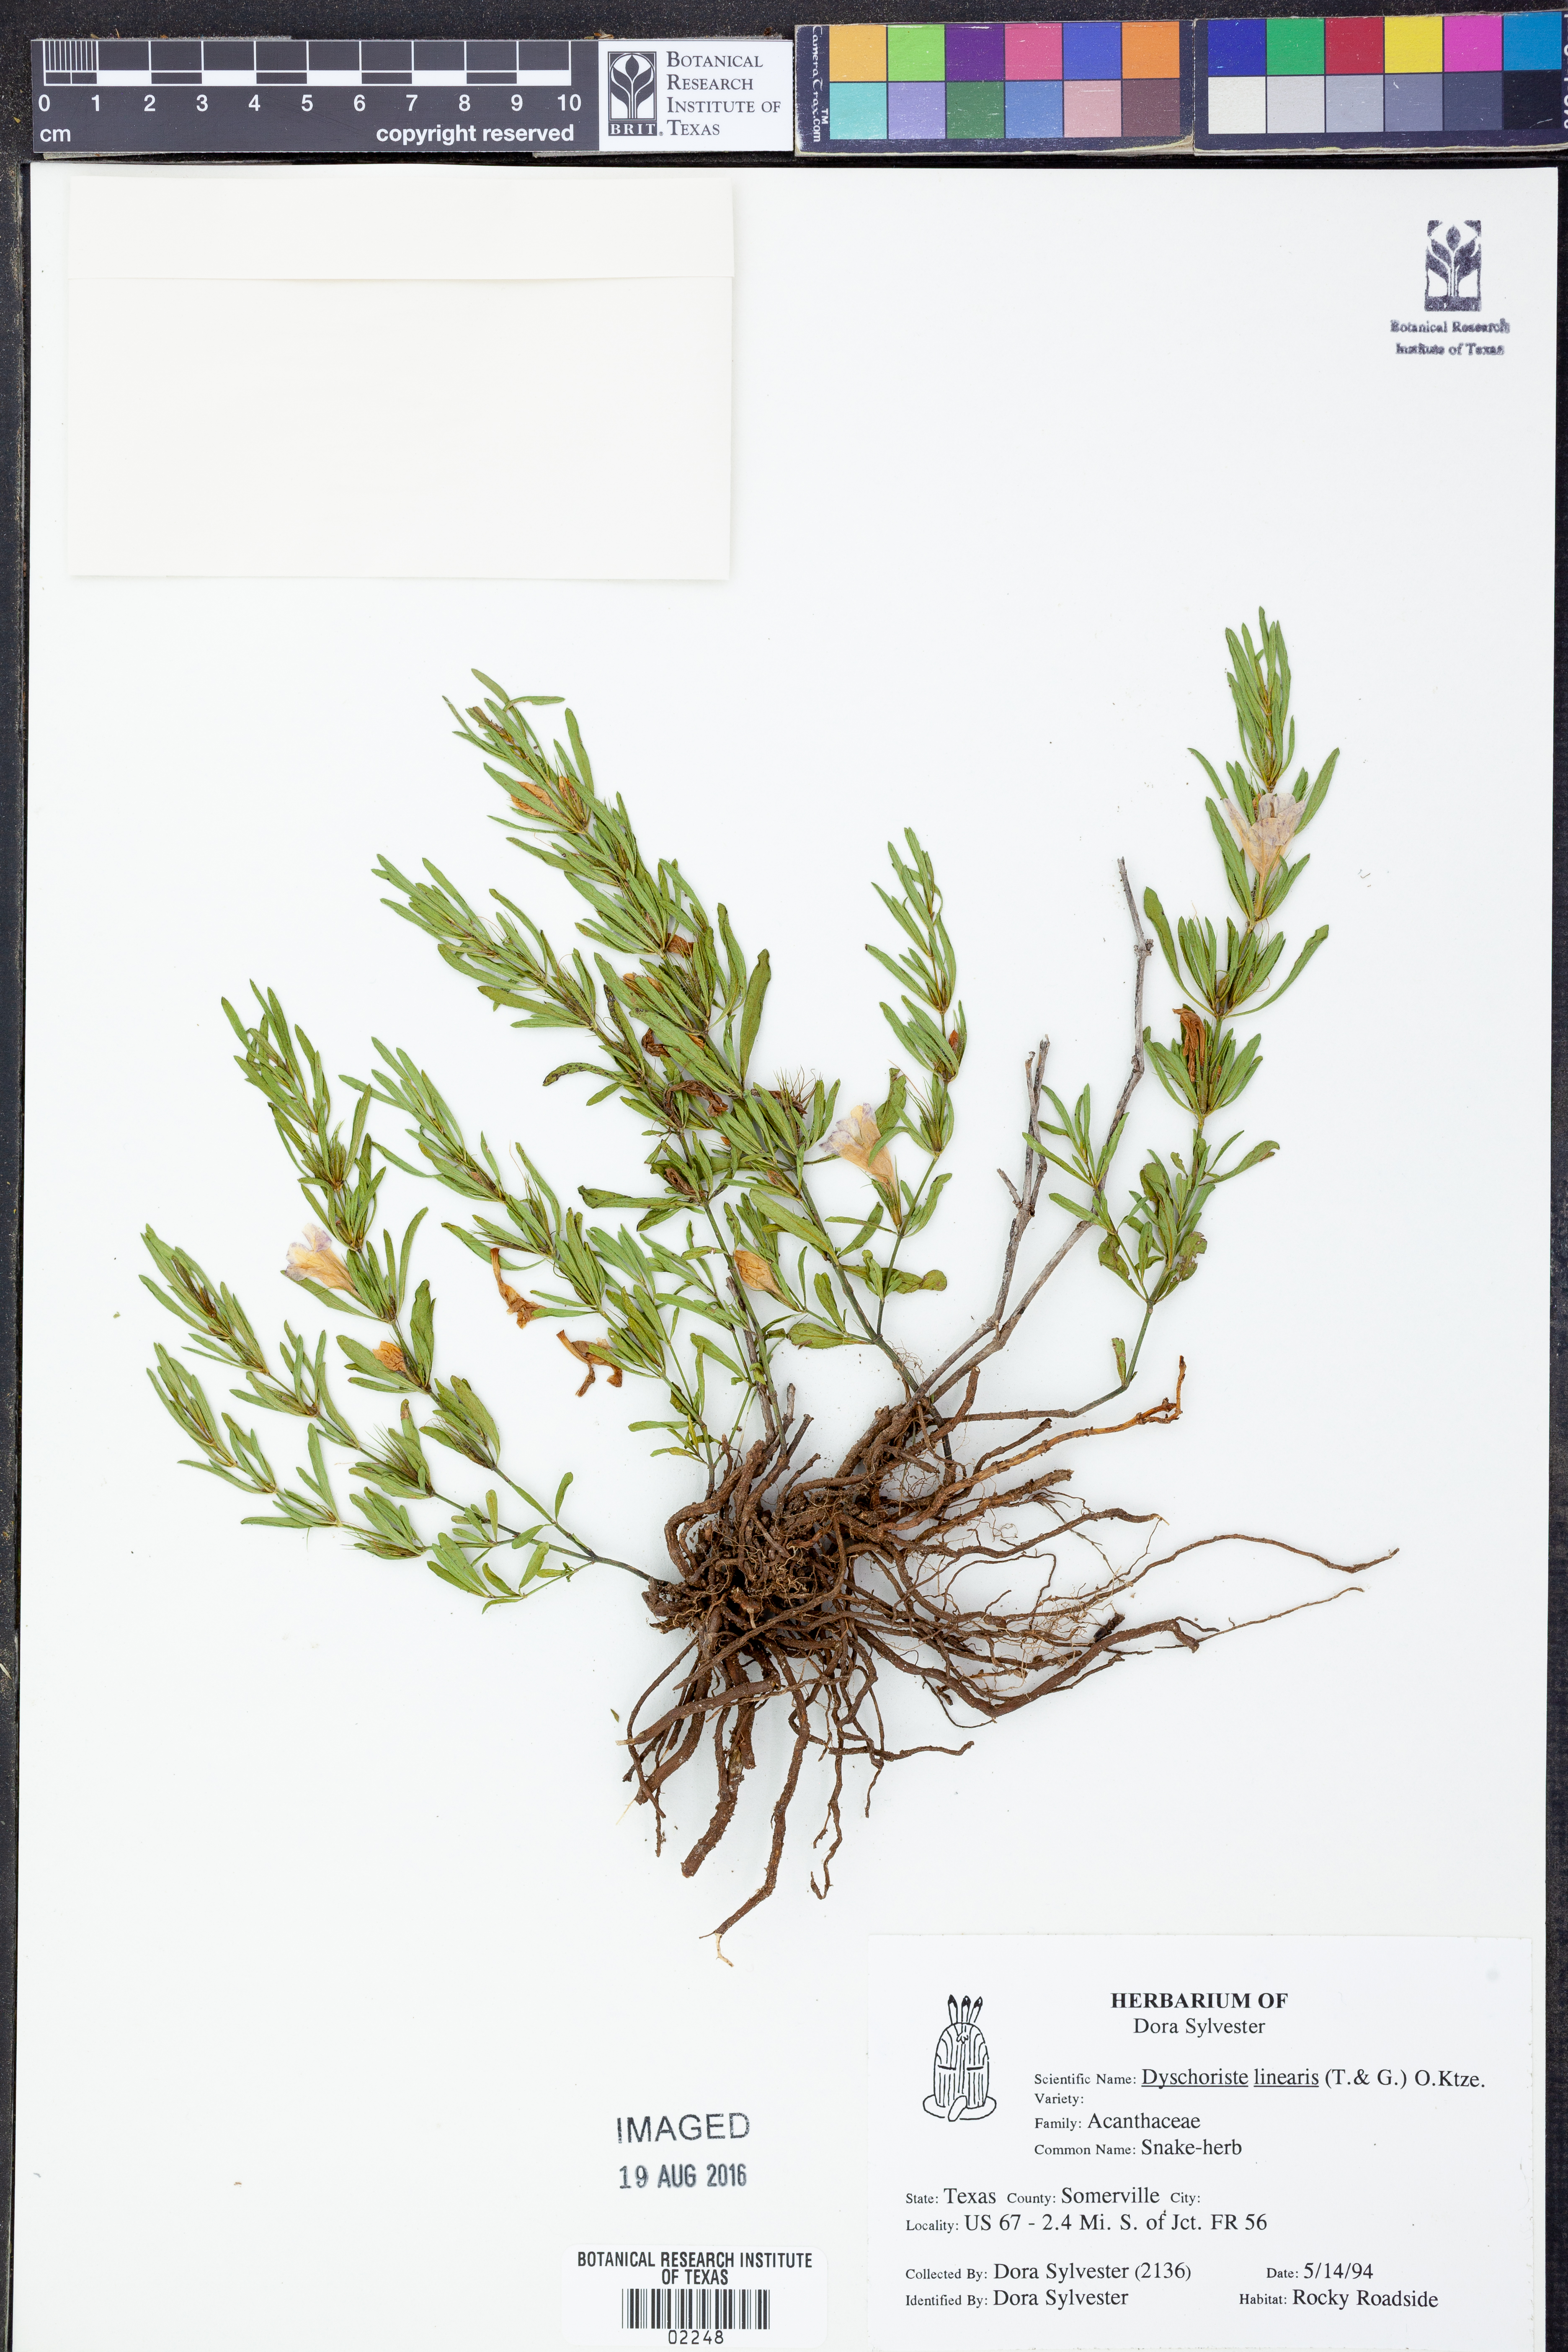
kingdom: Plantae
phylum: Tracheophyta
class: Magnoliopsida
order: Lamiales
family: Acanthaceae
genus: Dyschoriste
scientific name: Dyschoriste linearis
